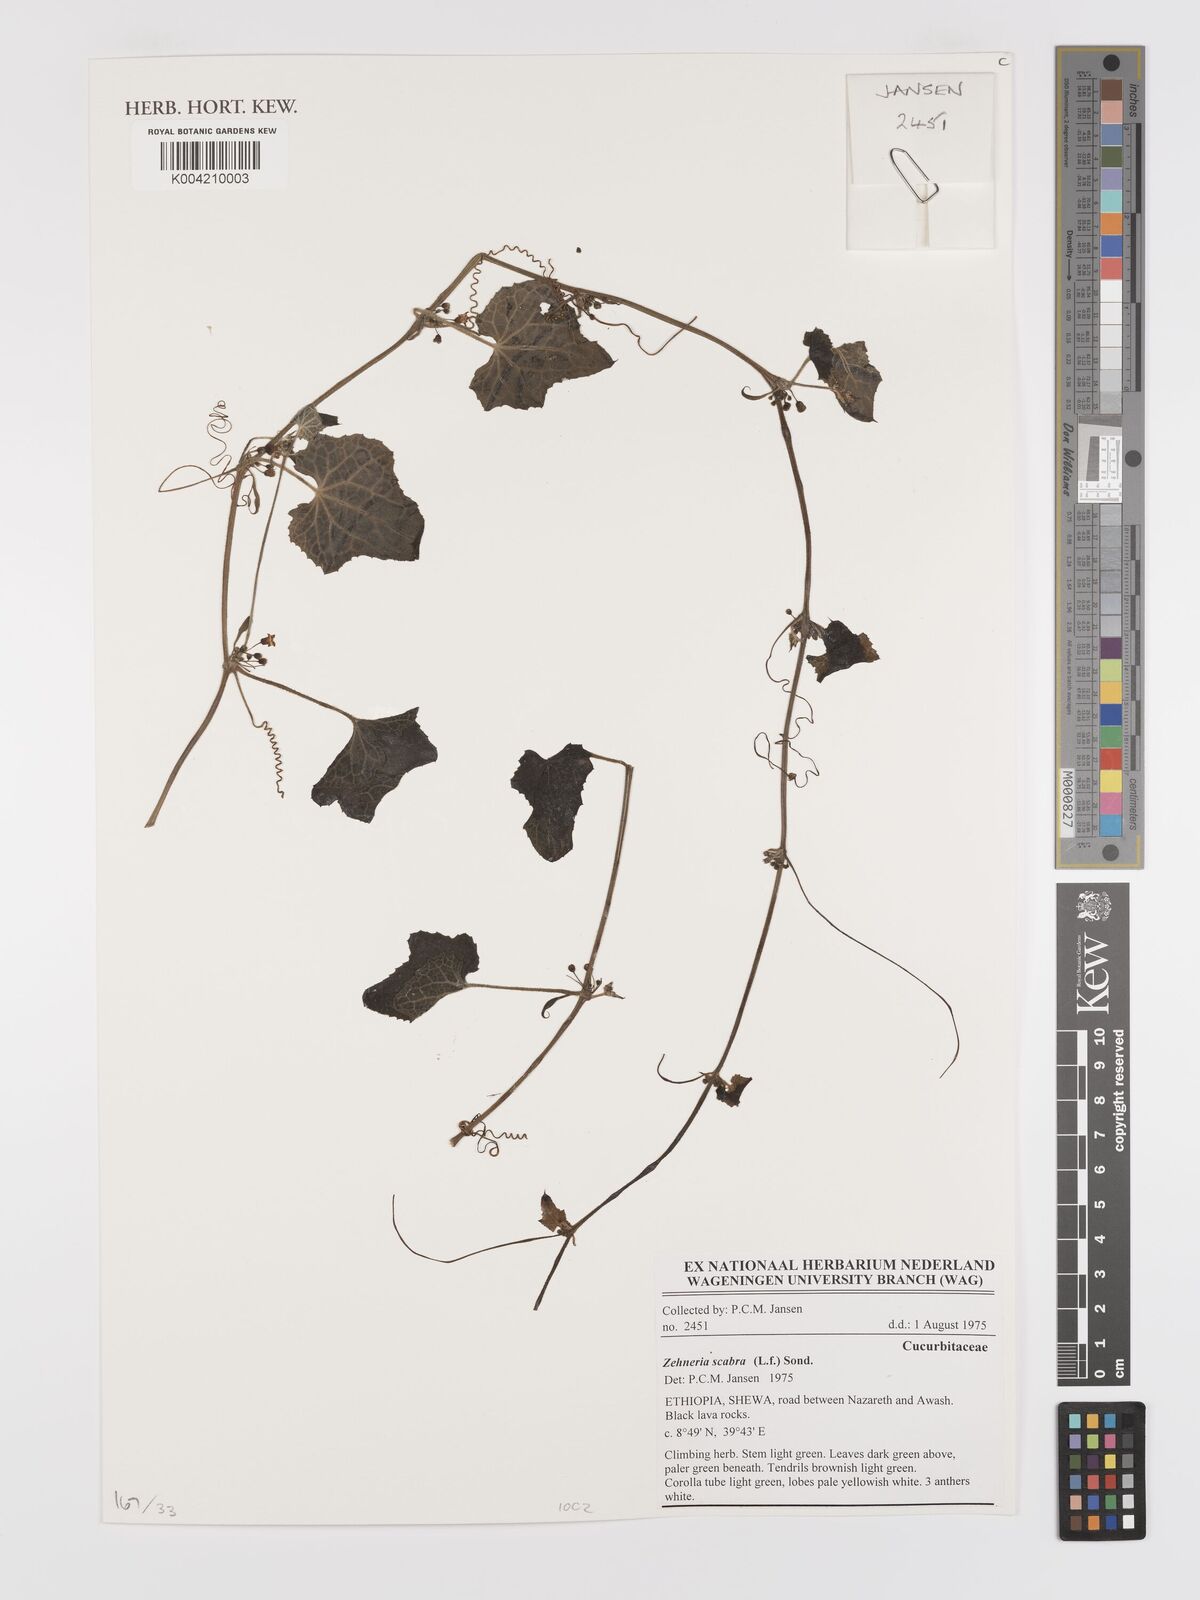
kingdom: Plantae
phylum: Tracheophyta
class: Magnoliopsida
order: Cucurbitales
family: Cucurbitaceae
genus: Zehneria
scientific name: Zehneria scabra
